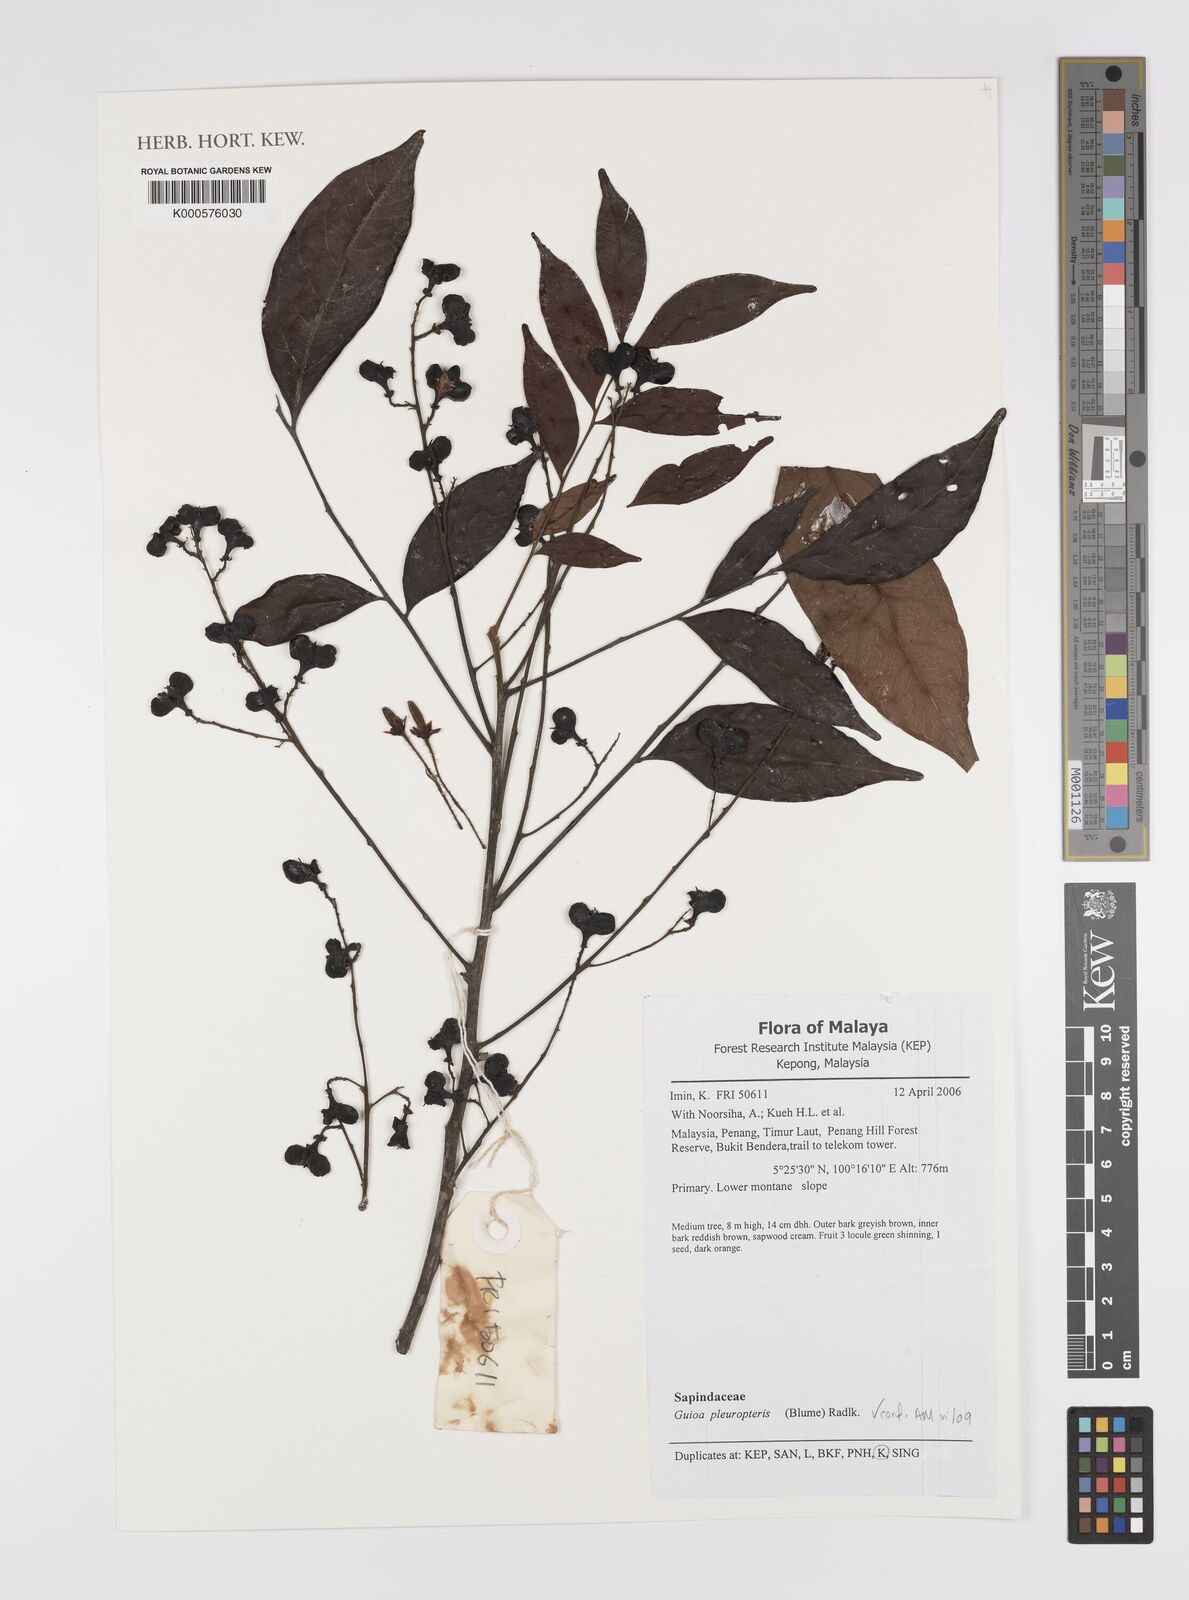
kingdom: Plantae
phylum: Tracheophyta
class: Magnoliopsida
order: Sapindales
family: Sapindaceae
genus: Guioa
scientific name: Guioa pleuropteris
